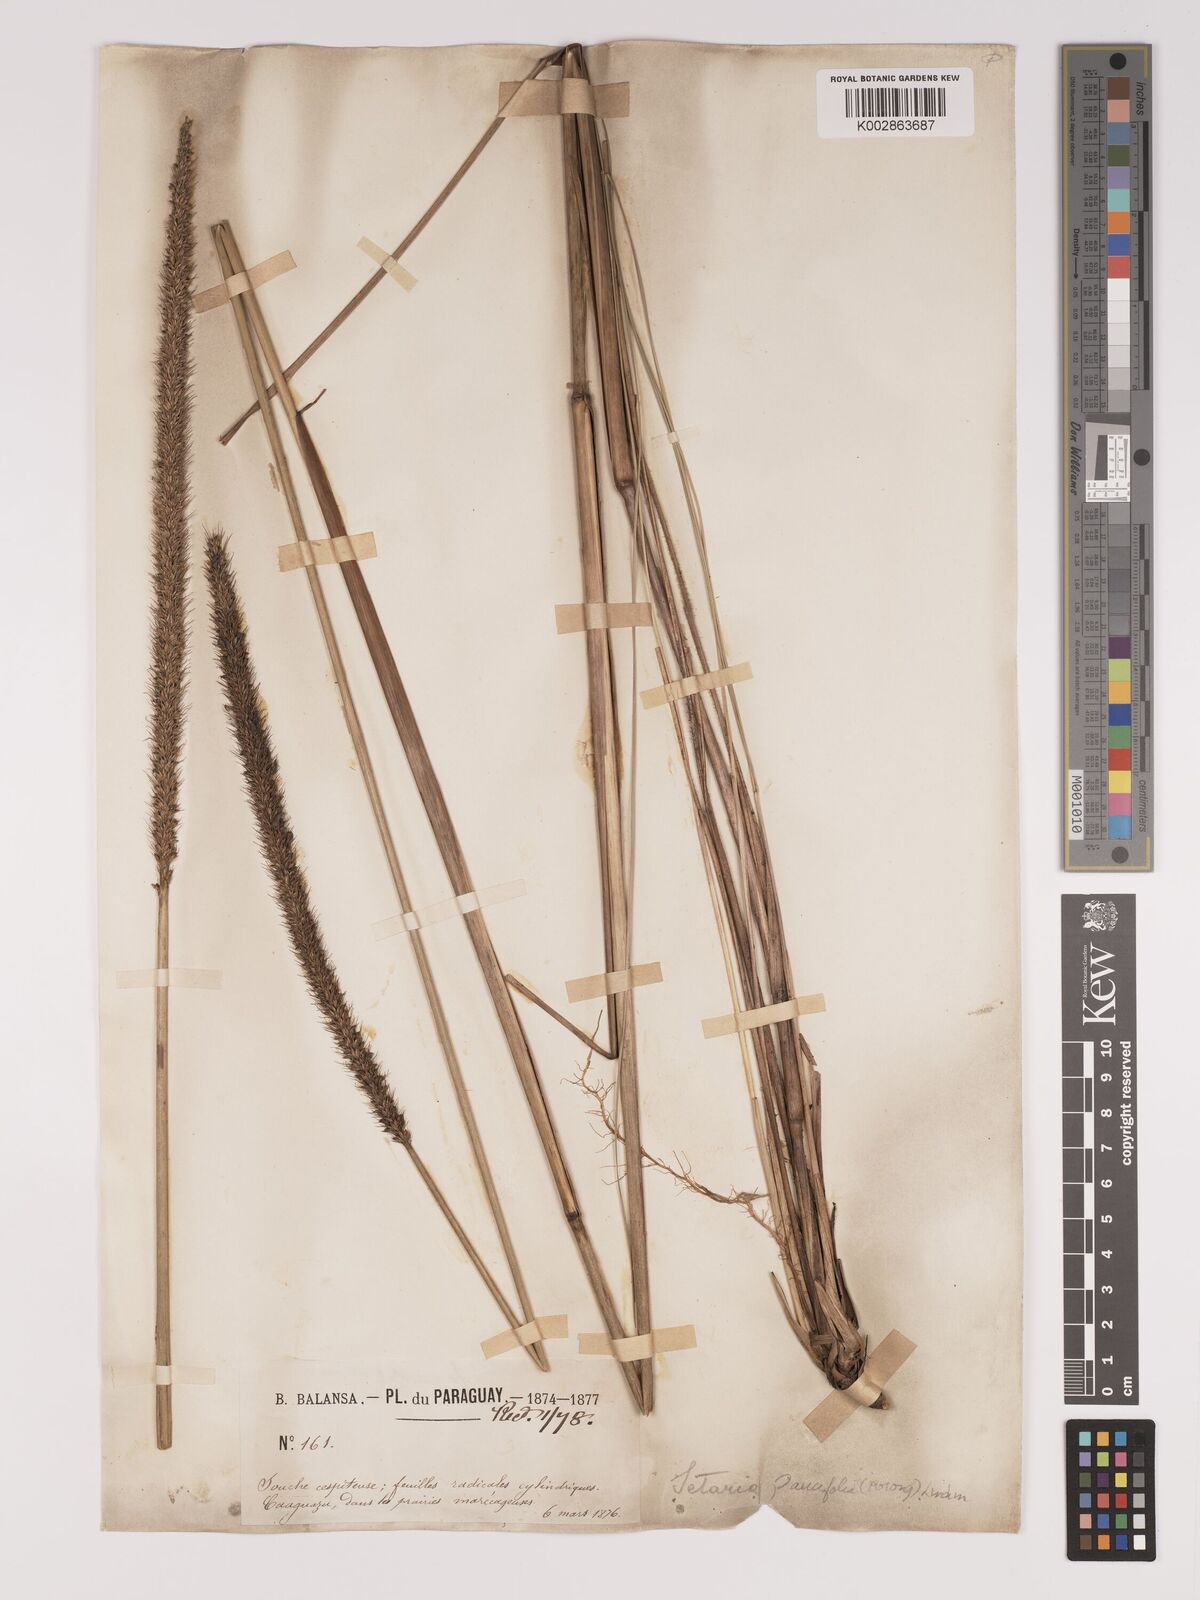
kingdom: Plantae
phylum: Tracheophyta
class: Liliopsida
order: Poales
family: Poaceae
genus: Setaria
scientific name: Setaria paucifolia
